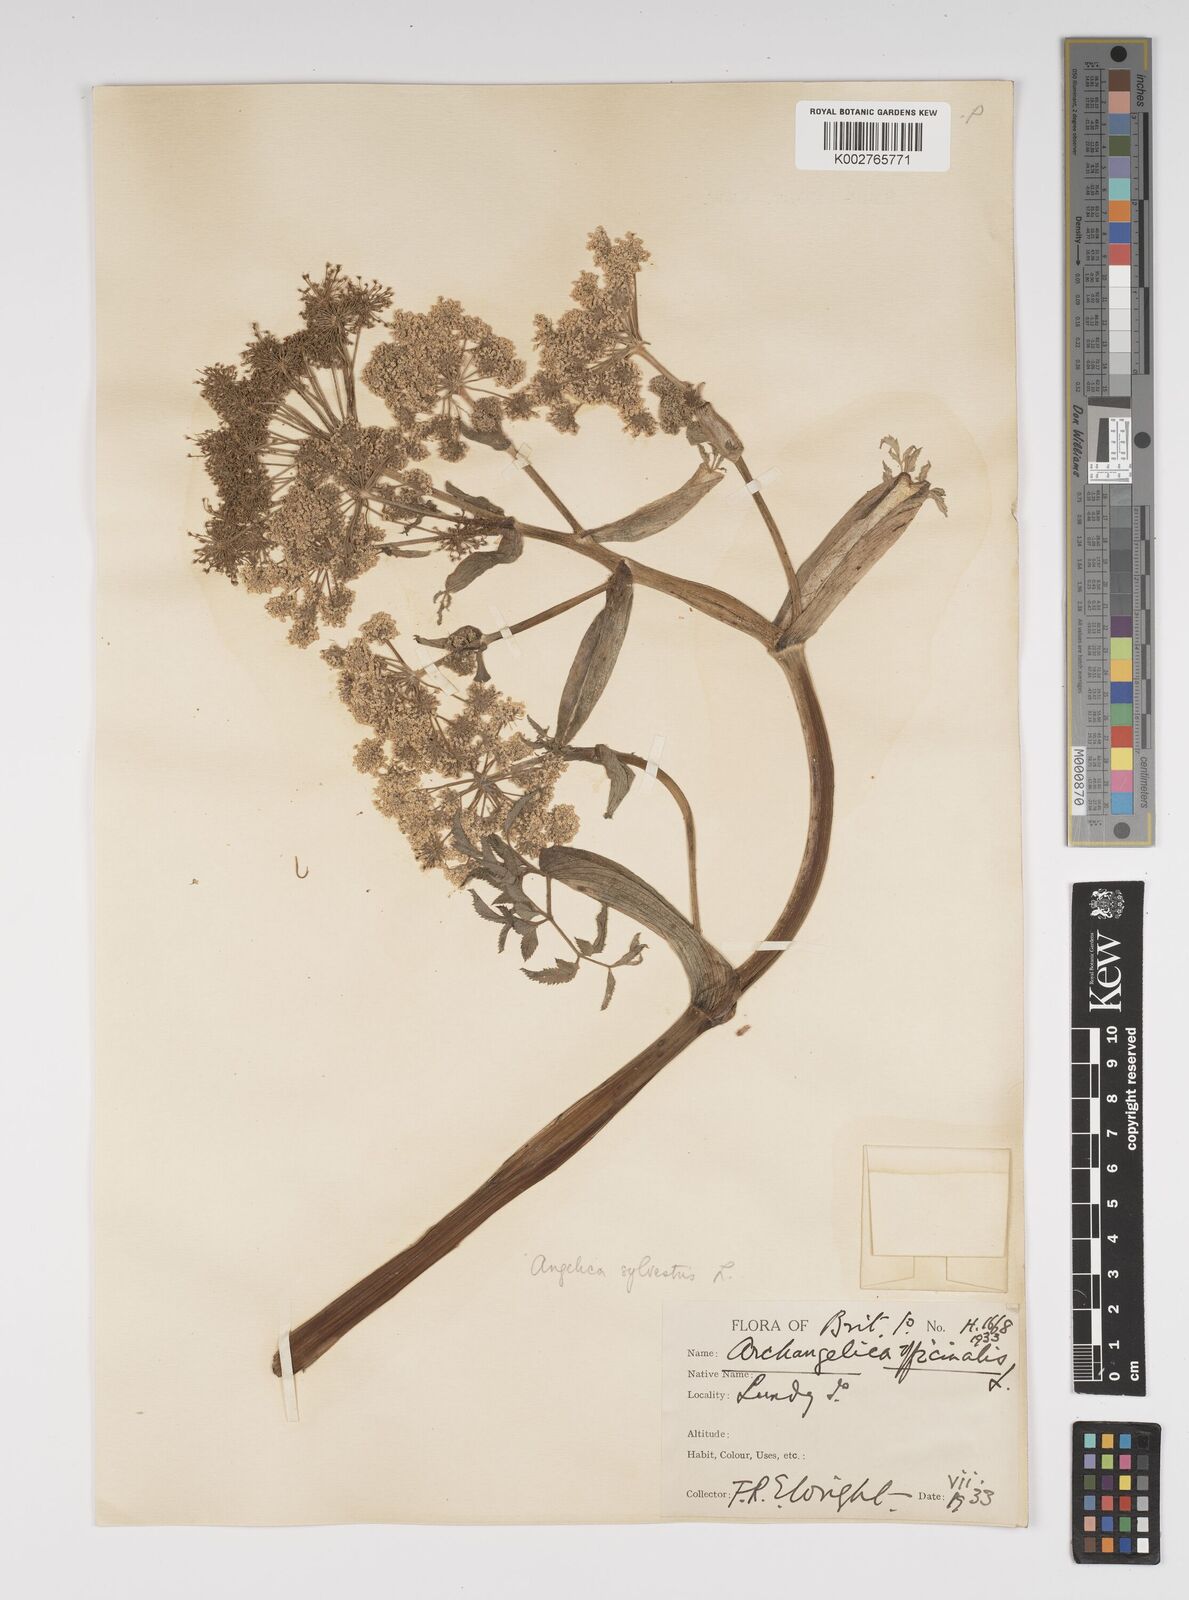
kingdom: Plantae
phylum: Tracheophyta
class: Magnoliopsida
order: Apiales
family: Apiaceae
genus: Angelica
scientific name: Angelica sylvestris
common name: Wild angelica
